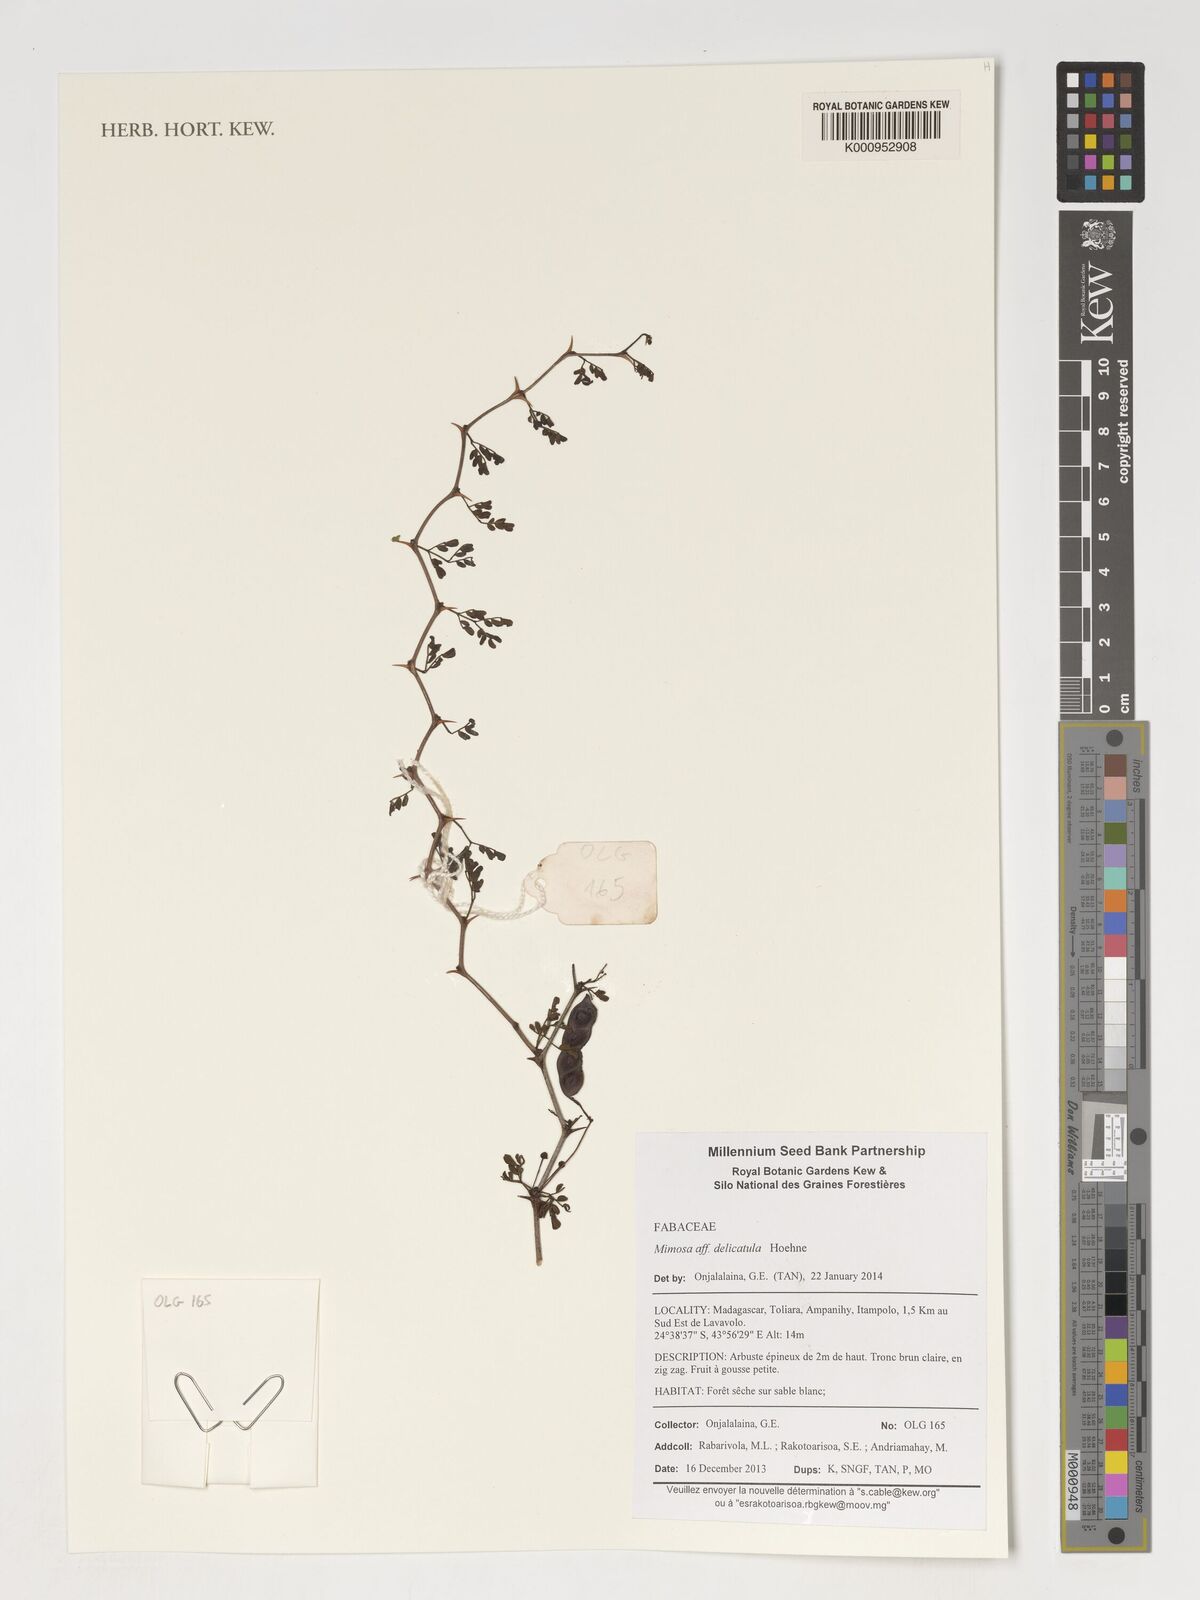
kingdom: Plantae
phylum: Tracheophyta
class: Magnoliopsida
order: Fabales
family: Fabaceae
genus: Mimosa
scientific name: Mimosa monticola
